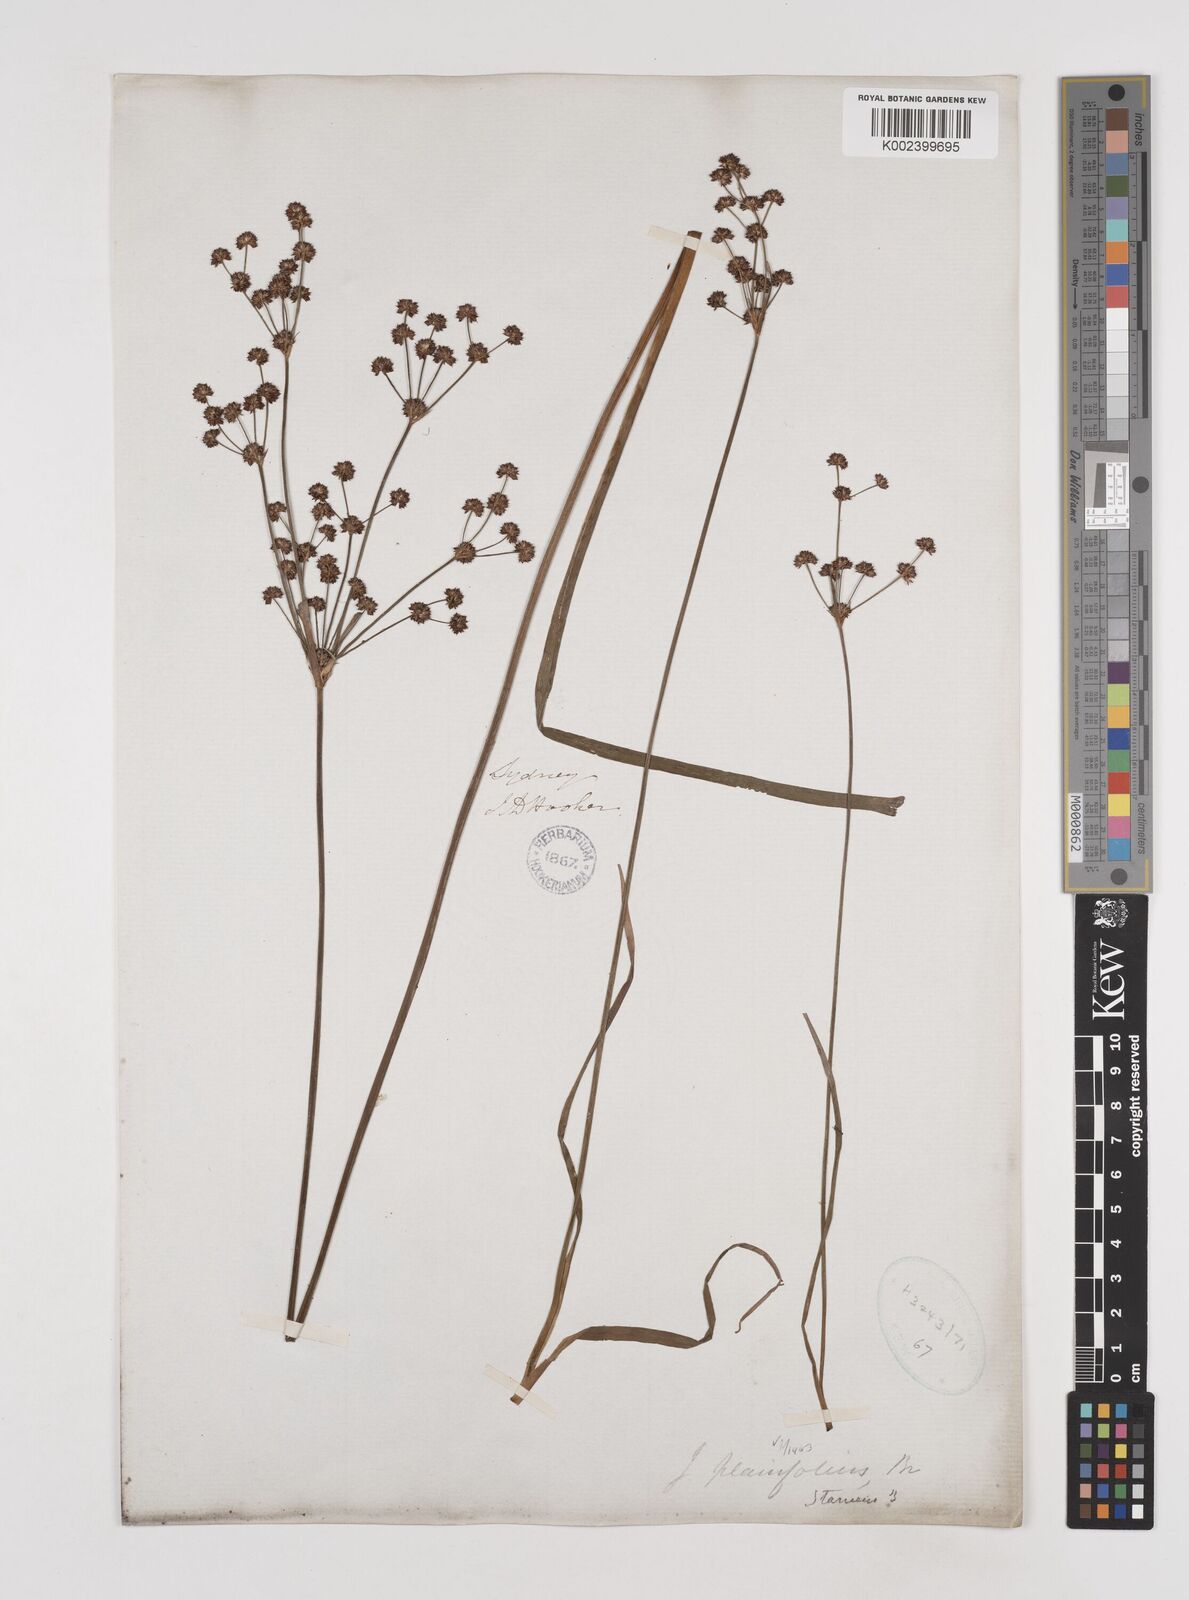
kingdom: Plantae
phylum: Tracheophyta
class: Liliopsida
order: Poales
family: Juncaceae
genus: Juncus
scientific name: Juncus planifolius
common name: Broadleaf rush
